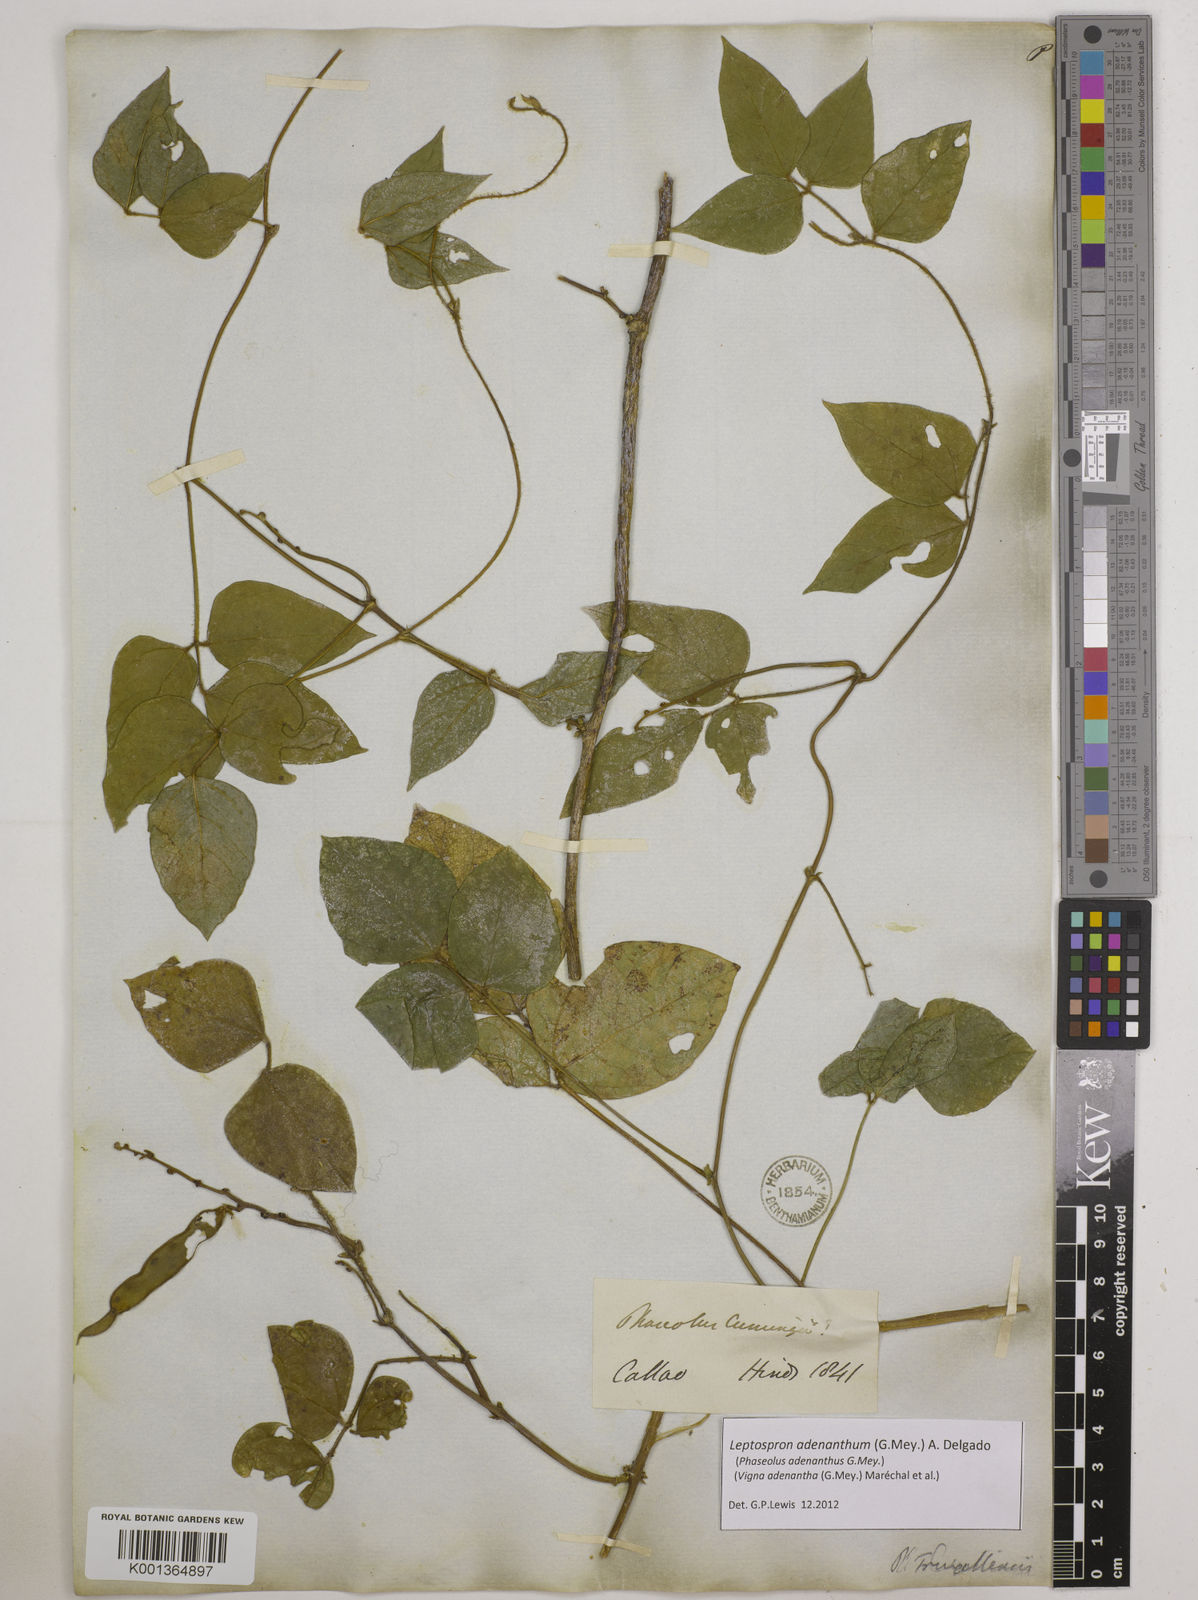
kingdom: Plantae
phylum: Tracheophyta
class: Magnoliopsida
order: Fabales
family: Fabaceae
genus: Leptospron
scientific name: Leptospron adenanthum
